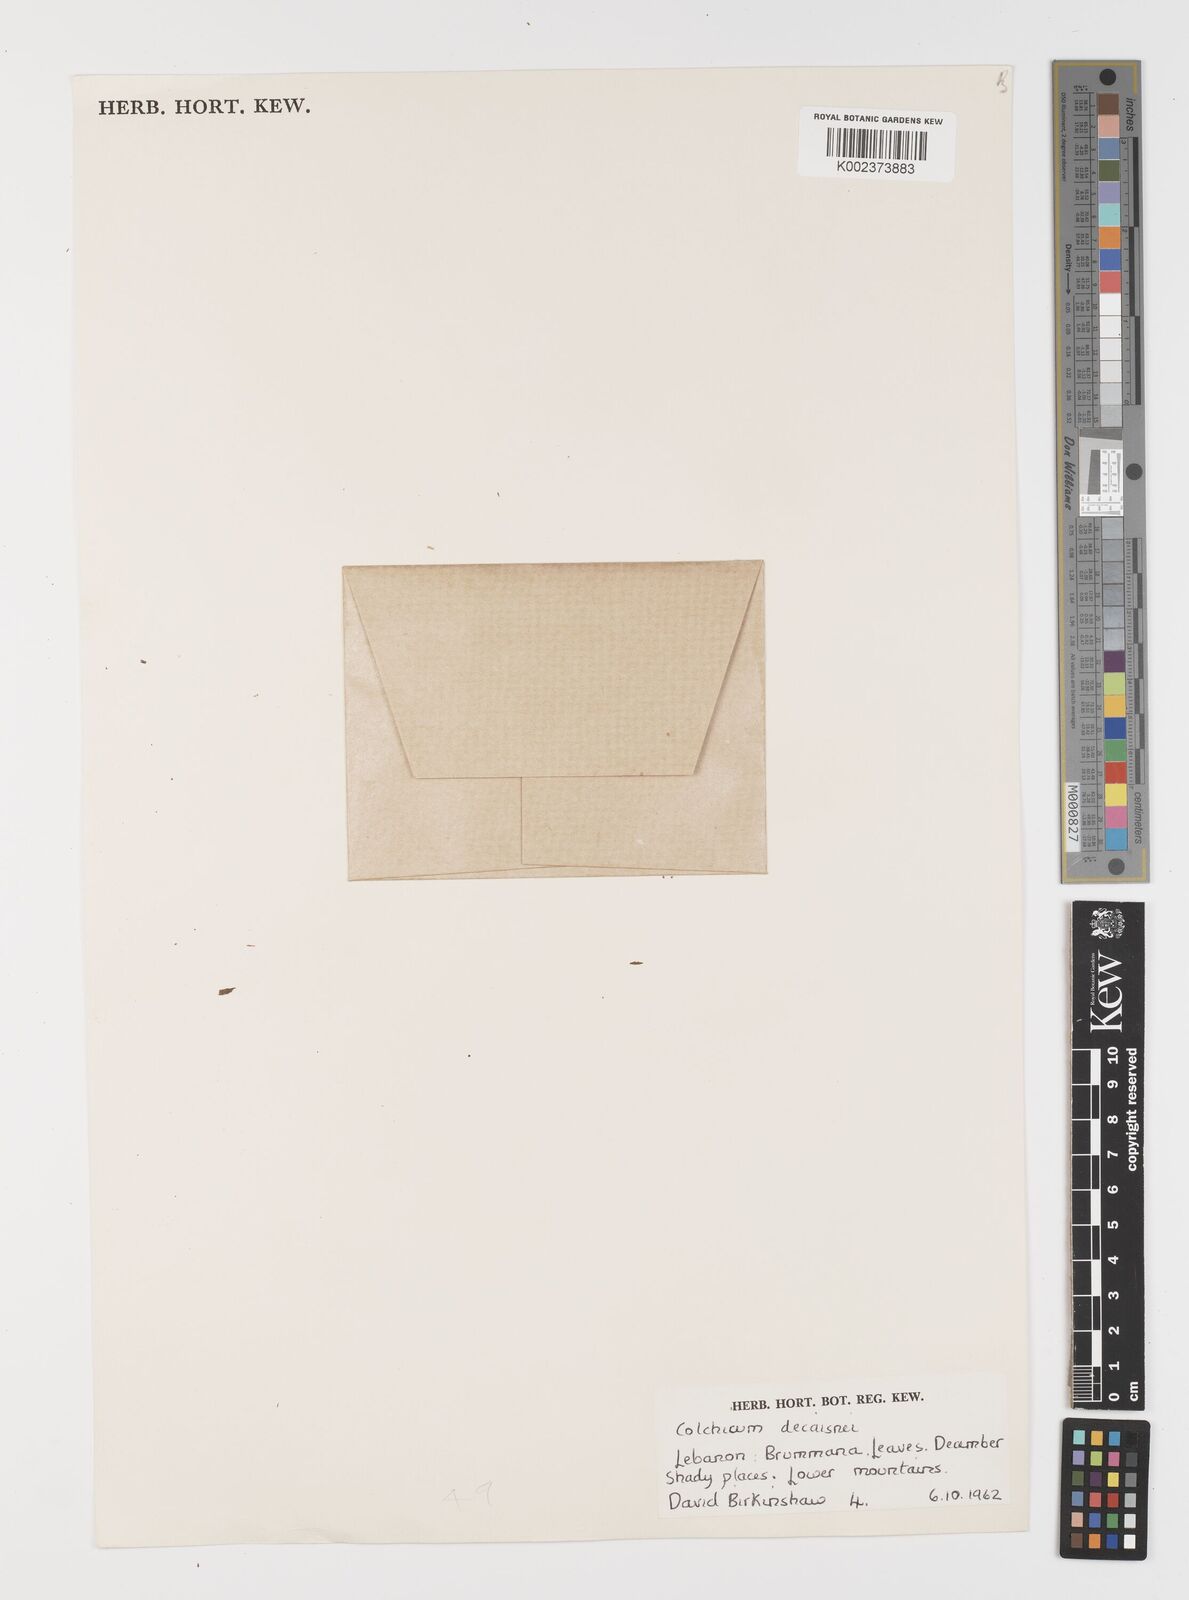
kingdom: Plantae
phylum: Tracheophyta
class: Liliopsida
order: Liliales
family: Colchicaceae
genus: Colchicum
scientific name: Colchicum decaisnei
